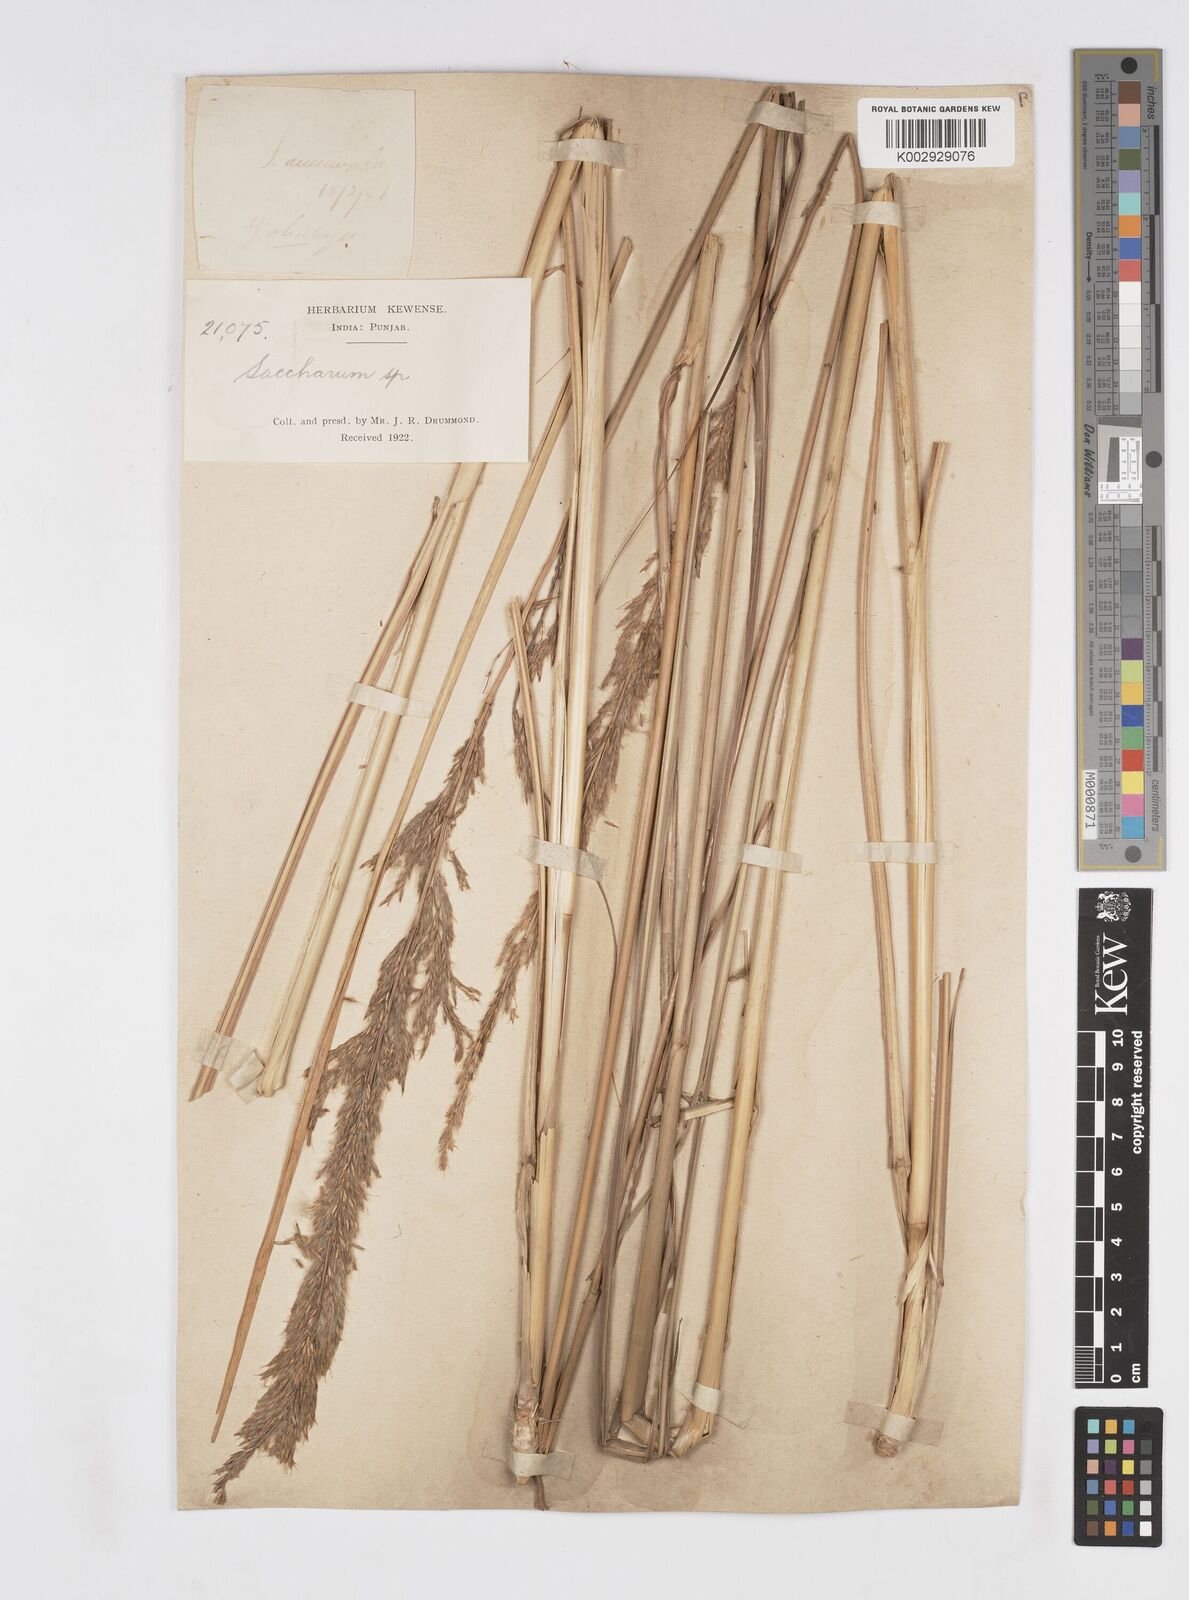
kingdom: Plantae
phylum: Tracheophyta
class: Liliopsida
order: Poales
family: Poaceae
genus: Tripidium
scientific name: Tripidium bengalense
